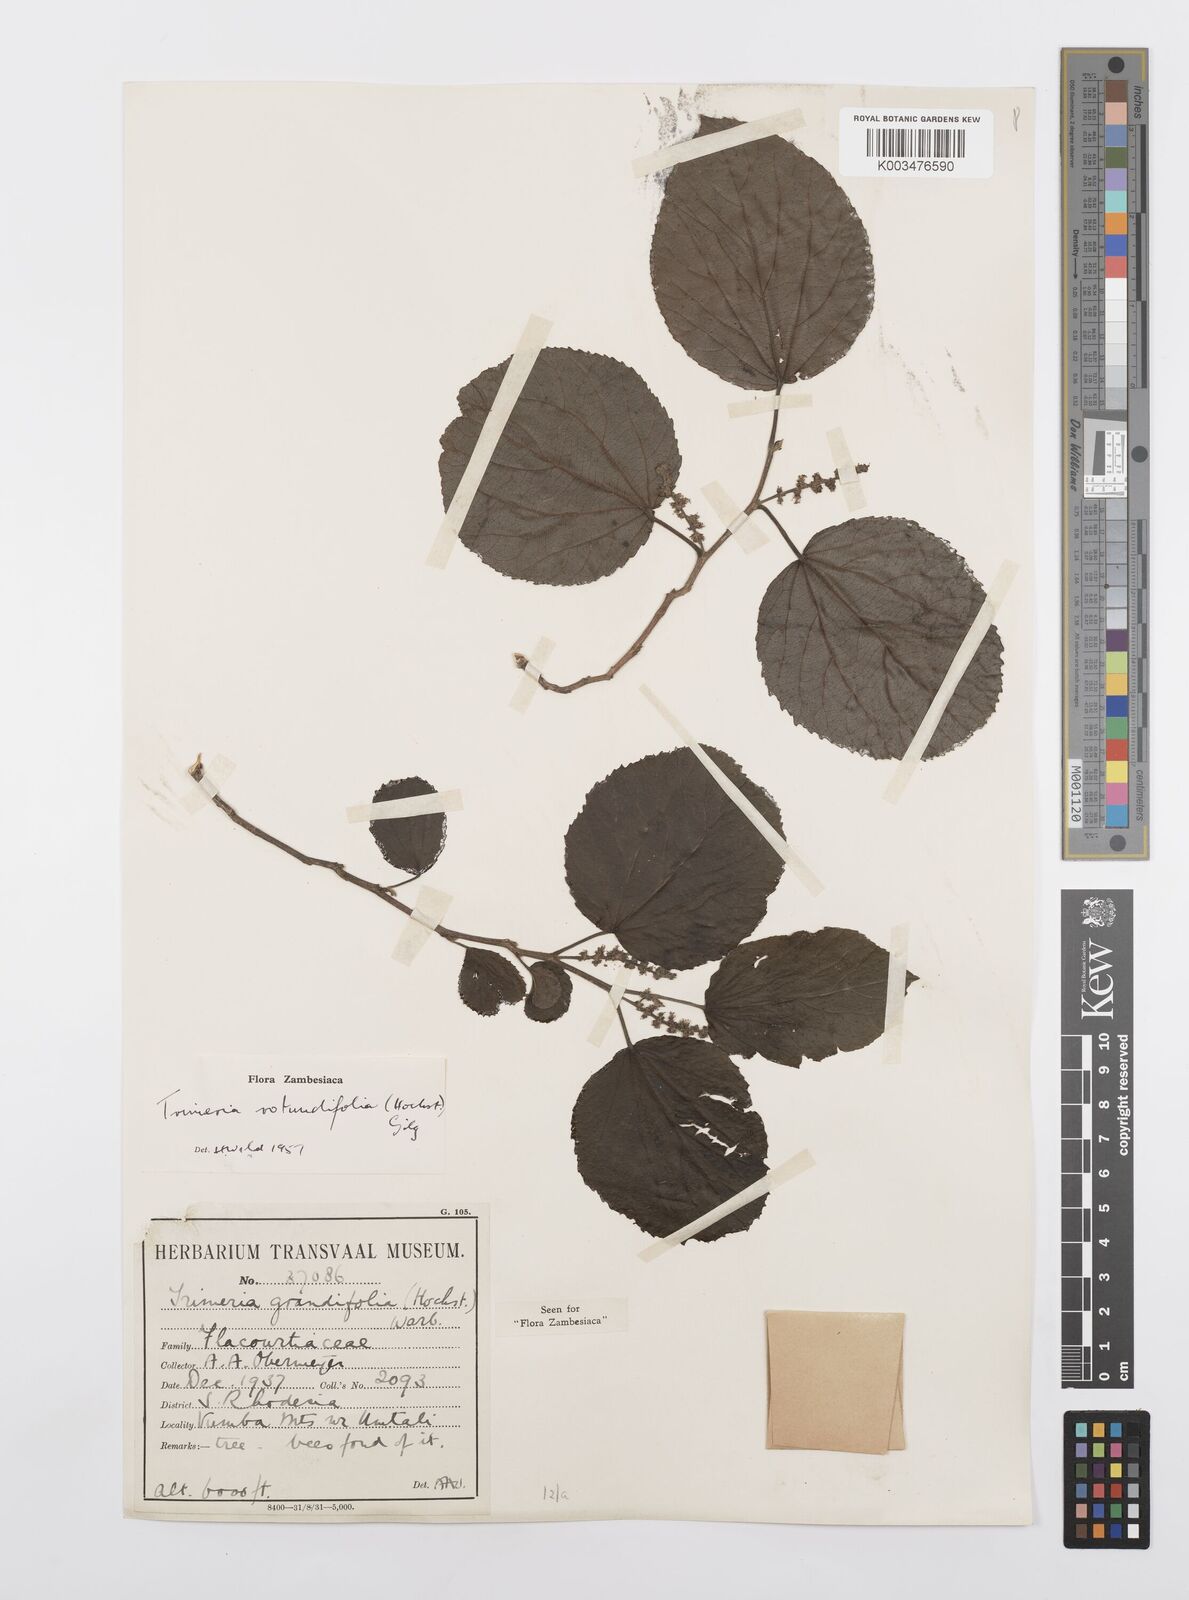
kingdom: Plantae
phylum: Tracheophyta
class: Magnoliopsida
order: Malpighiales
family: Salicaceae
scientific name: Salicaceae
